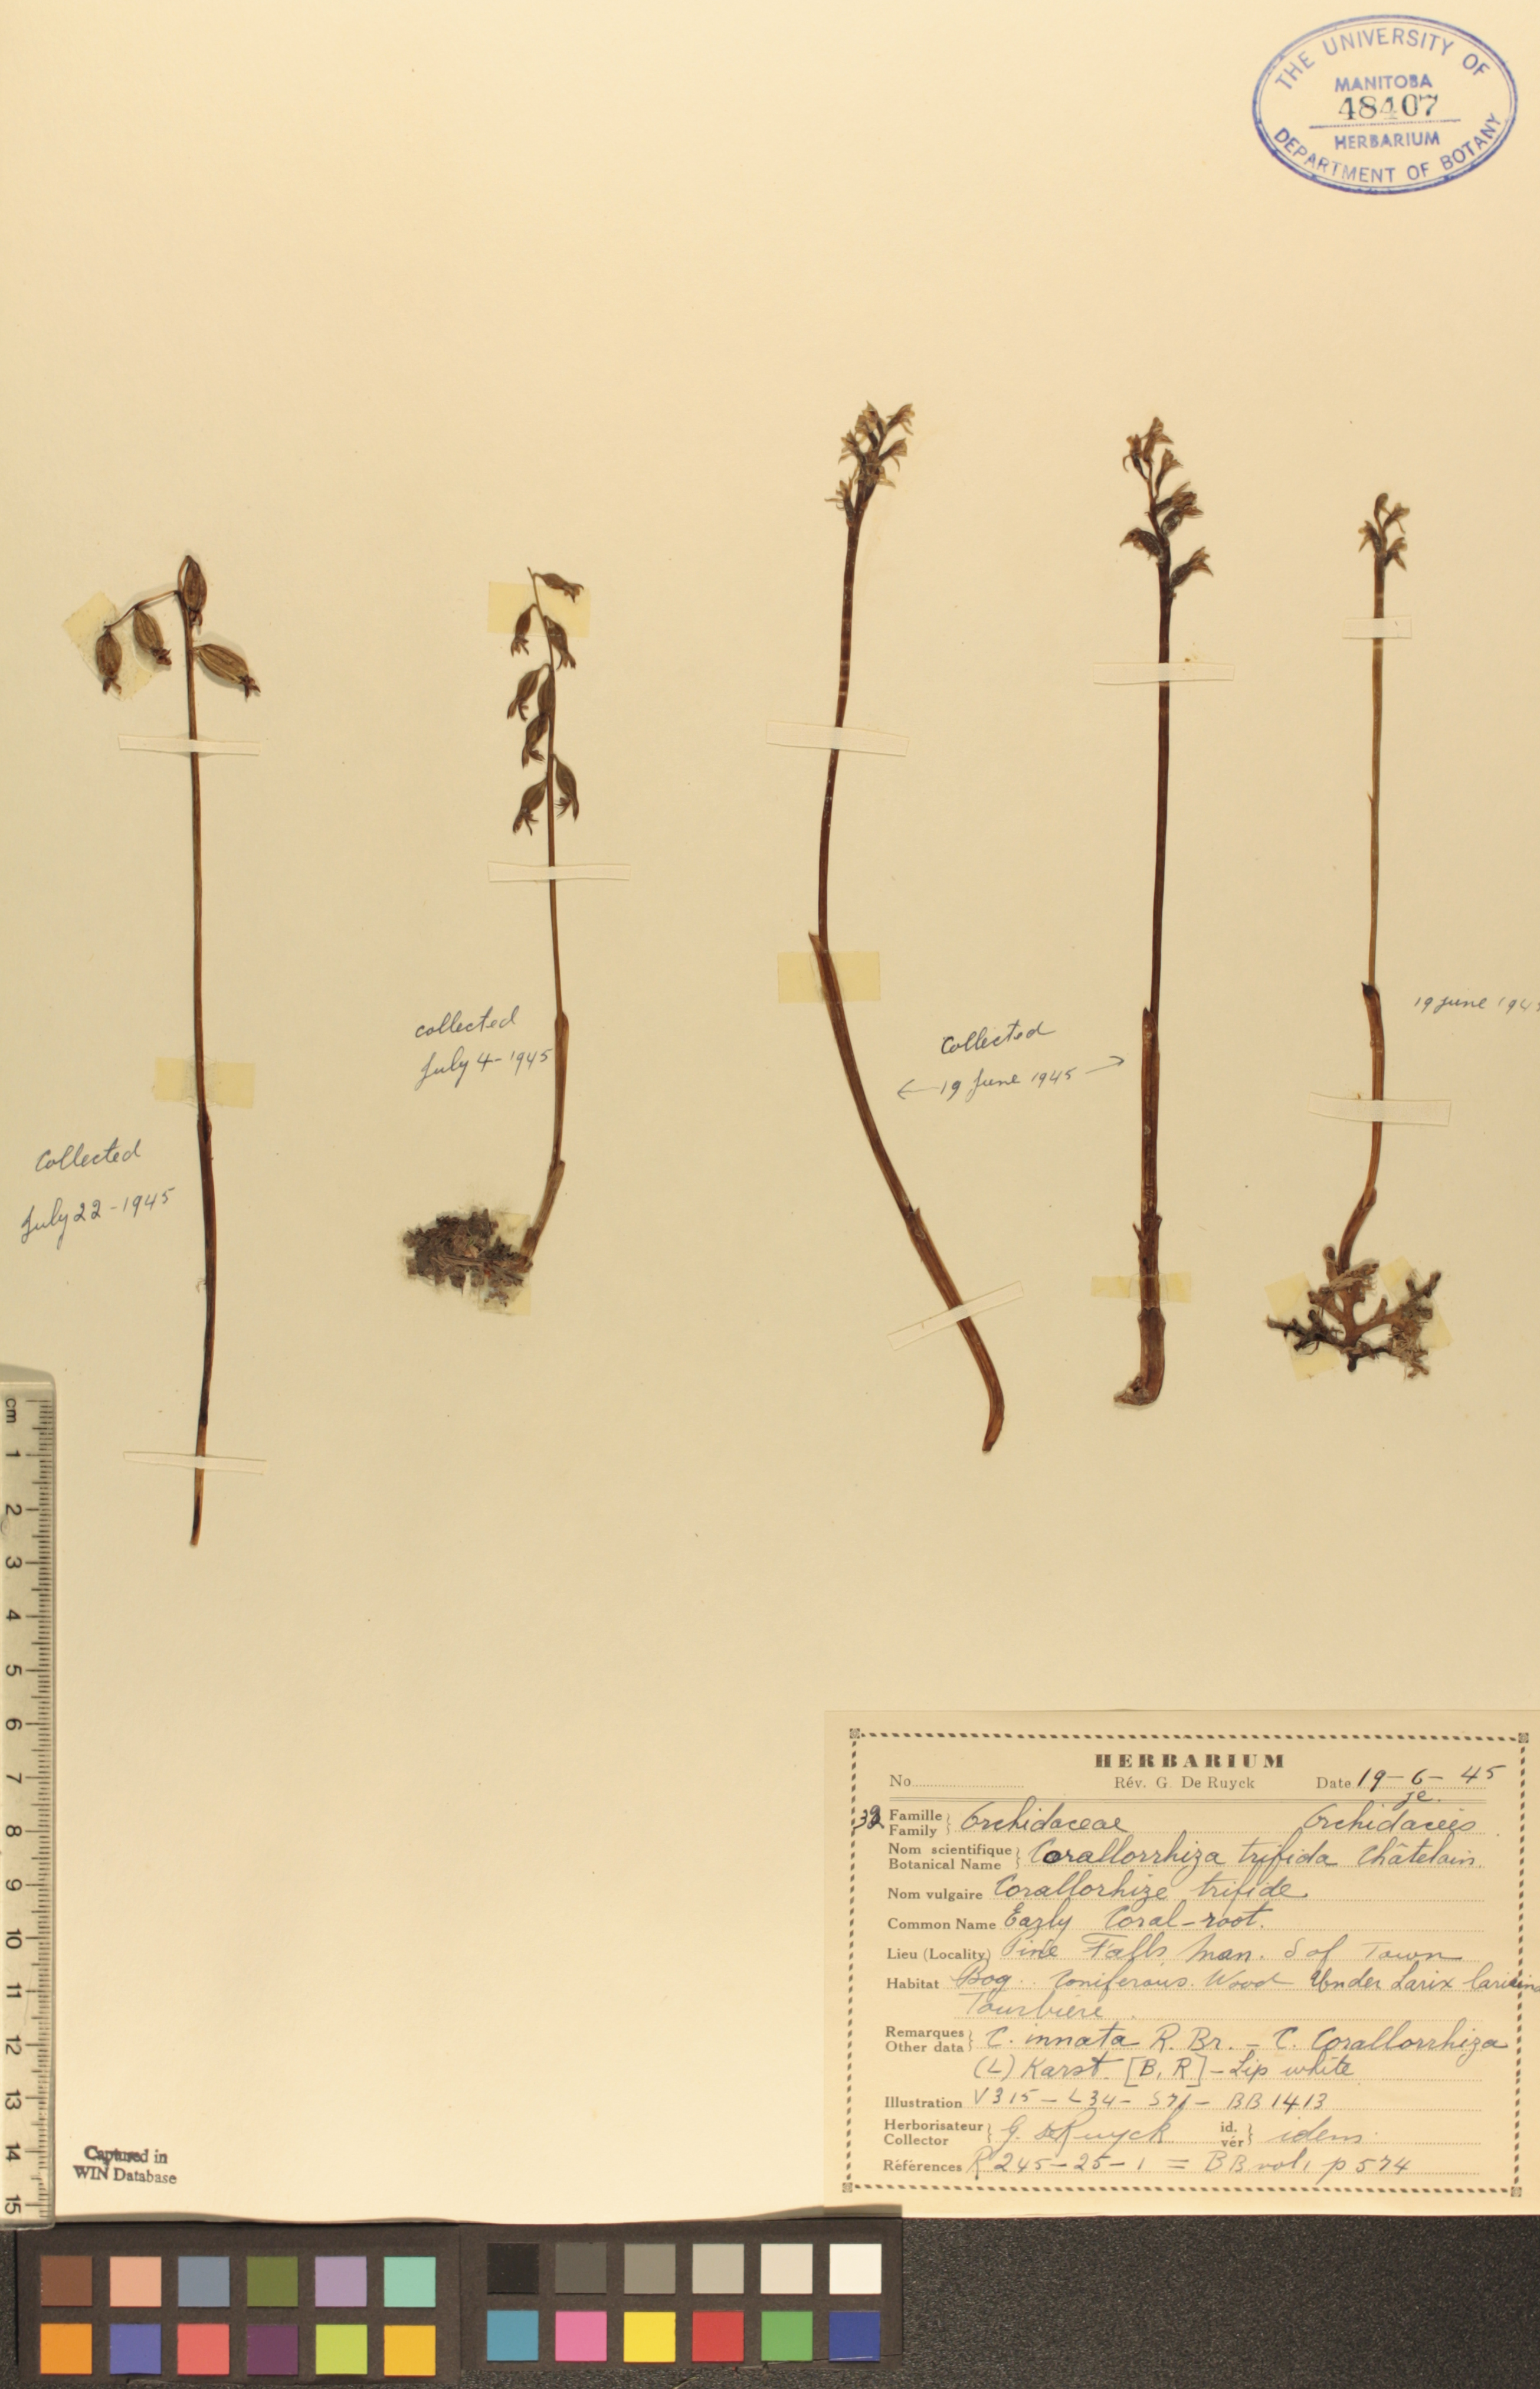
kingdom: Plantae
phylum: Tracheophyta
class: Liliopsida
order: Asparagales
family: Orchidaceae
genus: Corallorhiza
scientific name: Corallorhiza trifida
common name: Yellow coralroot
